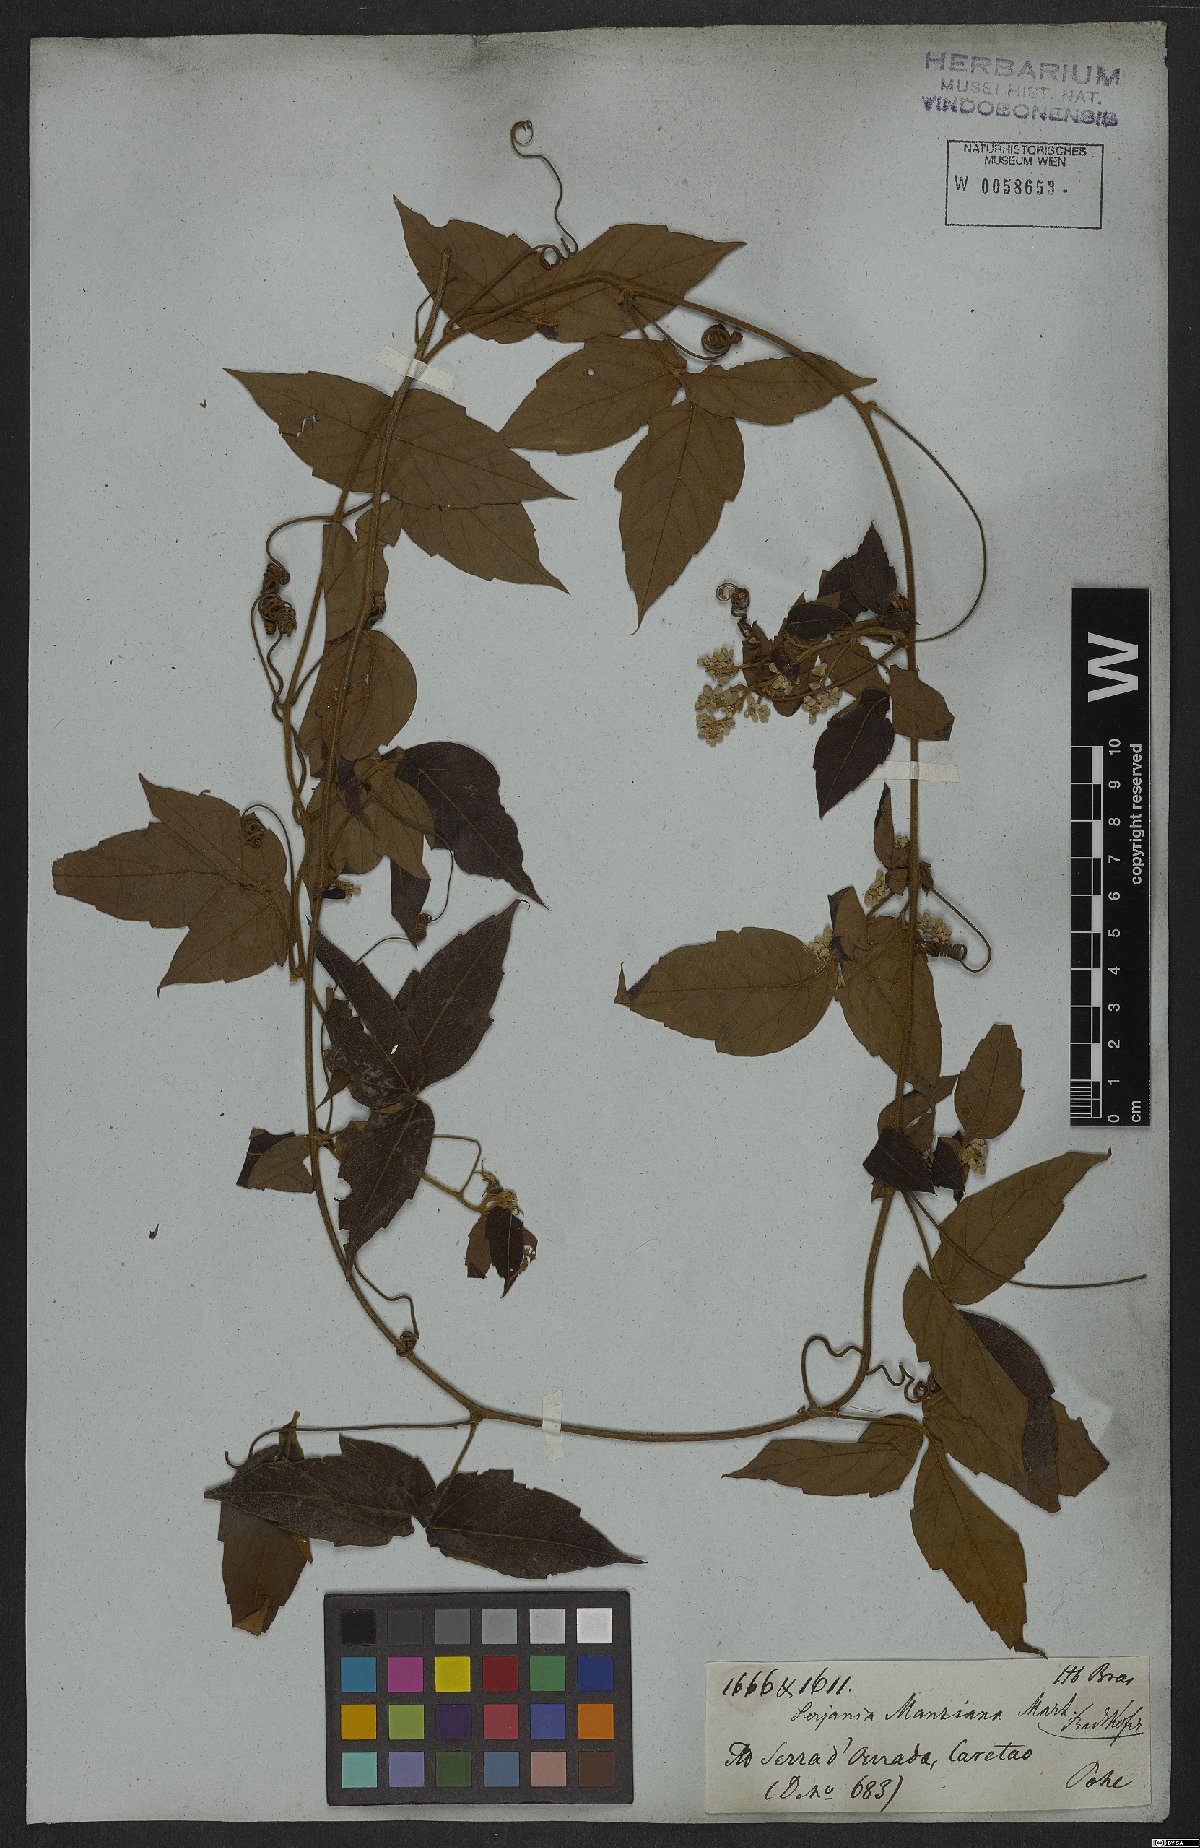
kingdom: Plantae
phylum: Tracheophyta
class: Magnoliopsida
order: Sapindales
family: Sapindaceae
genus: Serjania
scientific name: Serjania mansiana
